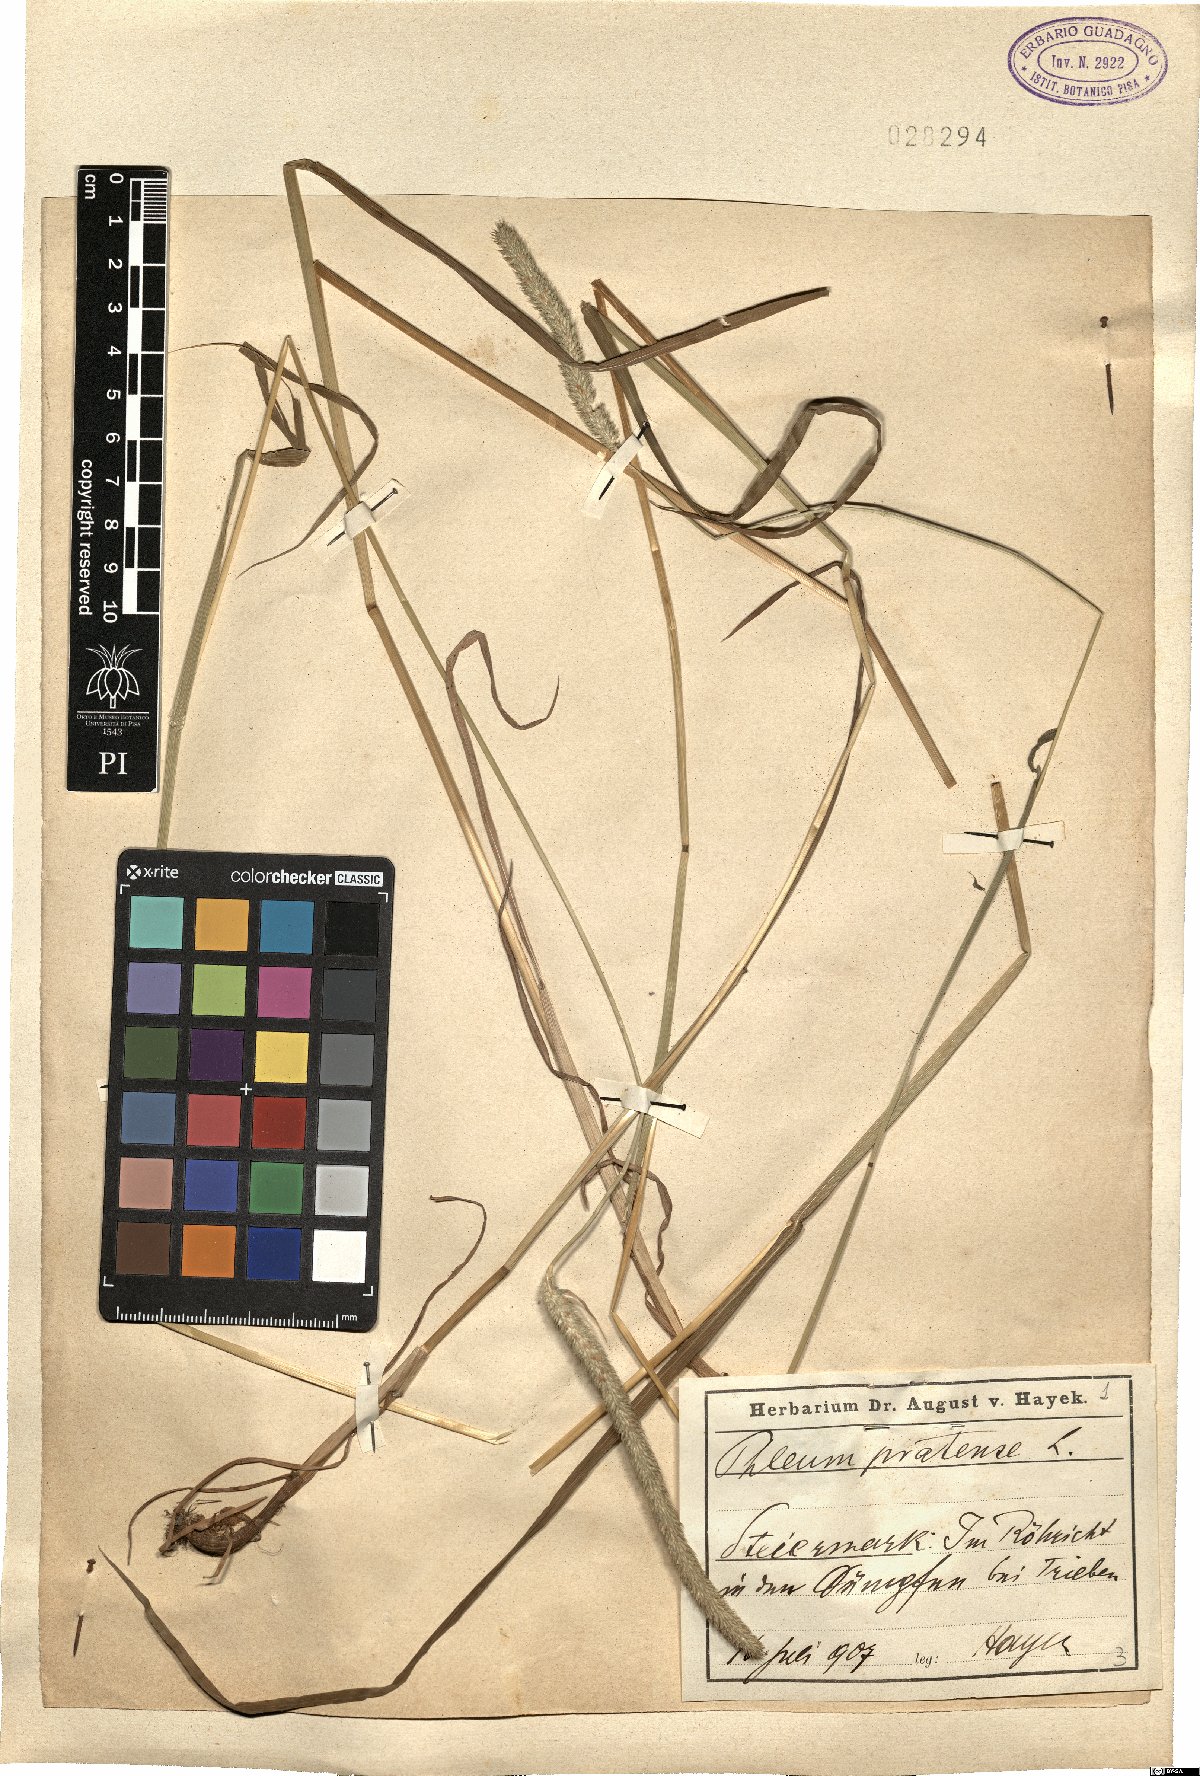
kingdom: Plantae
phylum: Tracheophyta
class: Liliopsida
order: Poales
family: Poaceae
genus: Phleum
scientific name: Phleum pratense
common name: Timothy grass
